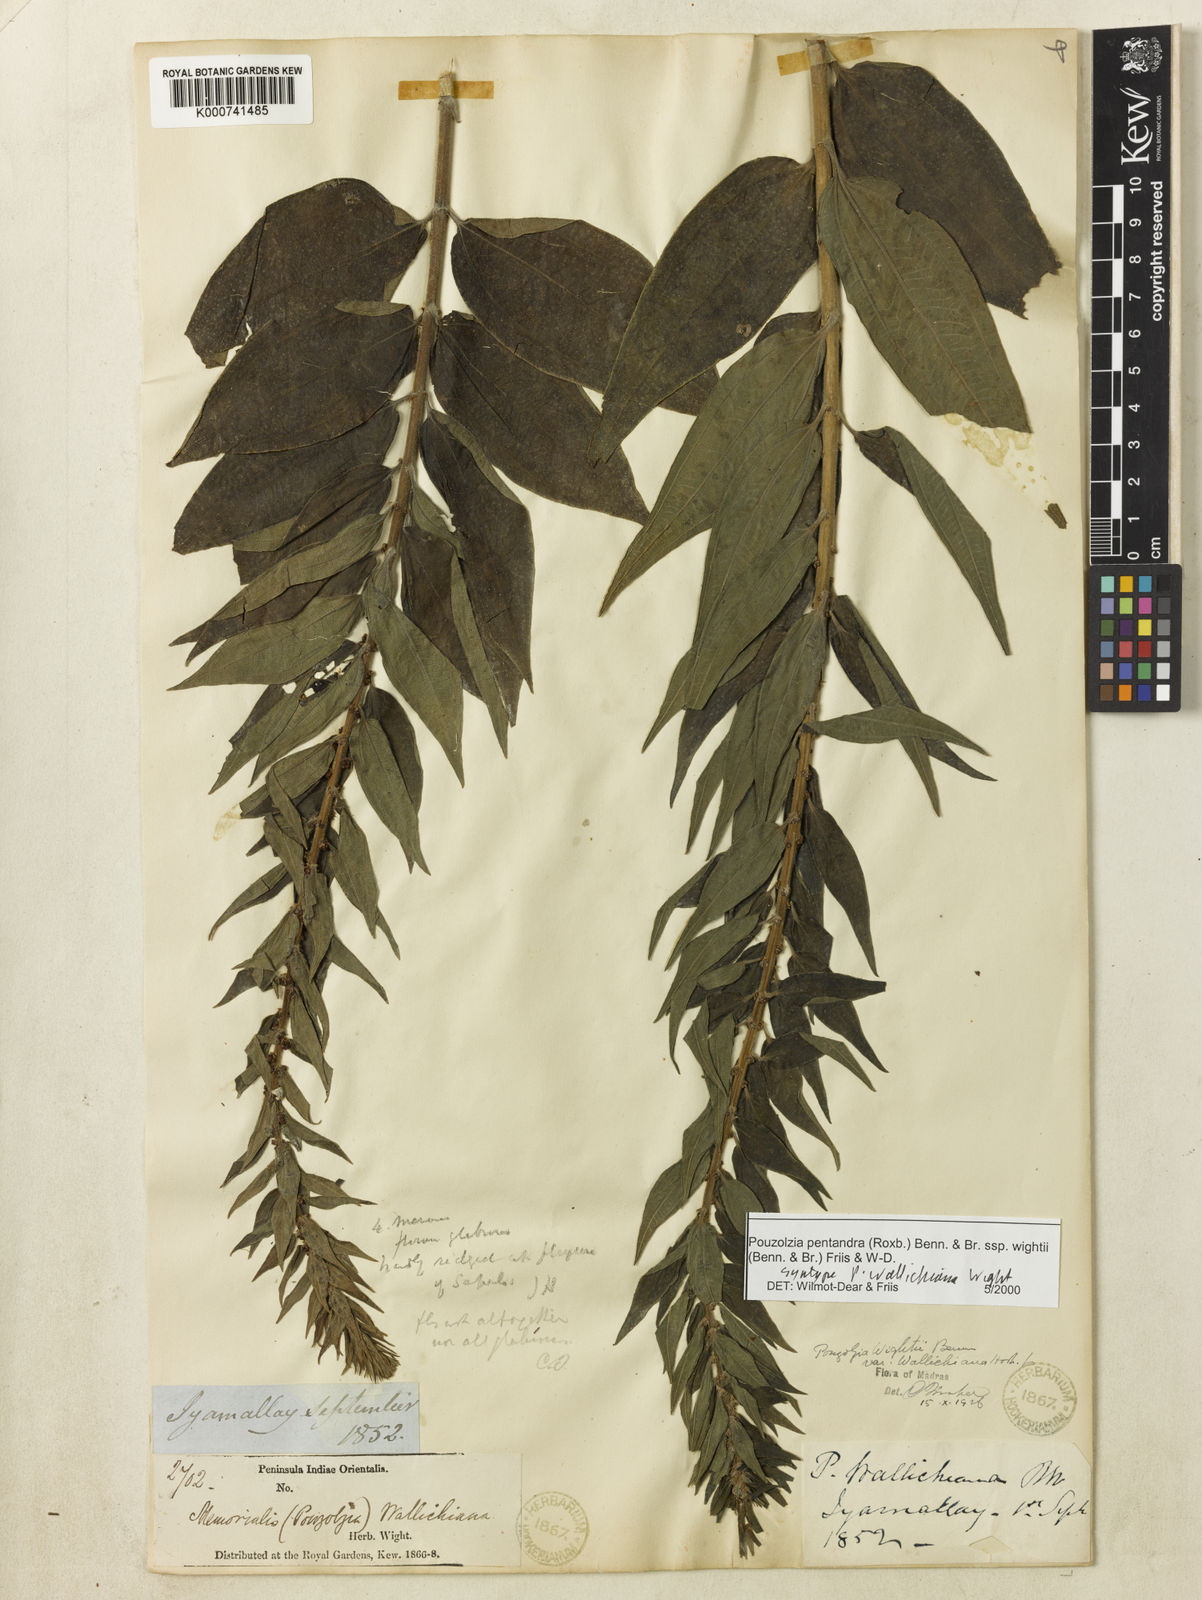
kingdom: Plantae
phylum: Tracheophyta
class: Magnoliopsida
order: Rosales
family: Urticaceae
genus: Gonostegia
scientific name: Gonostegia pentandra
